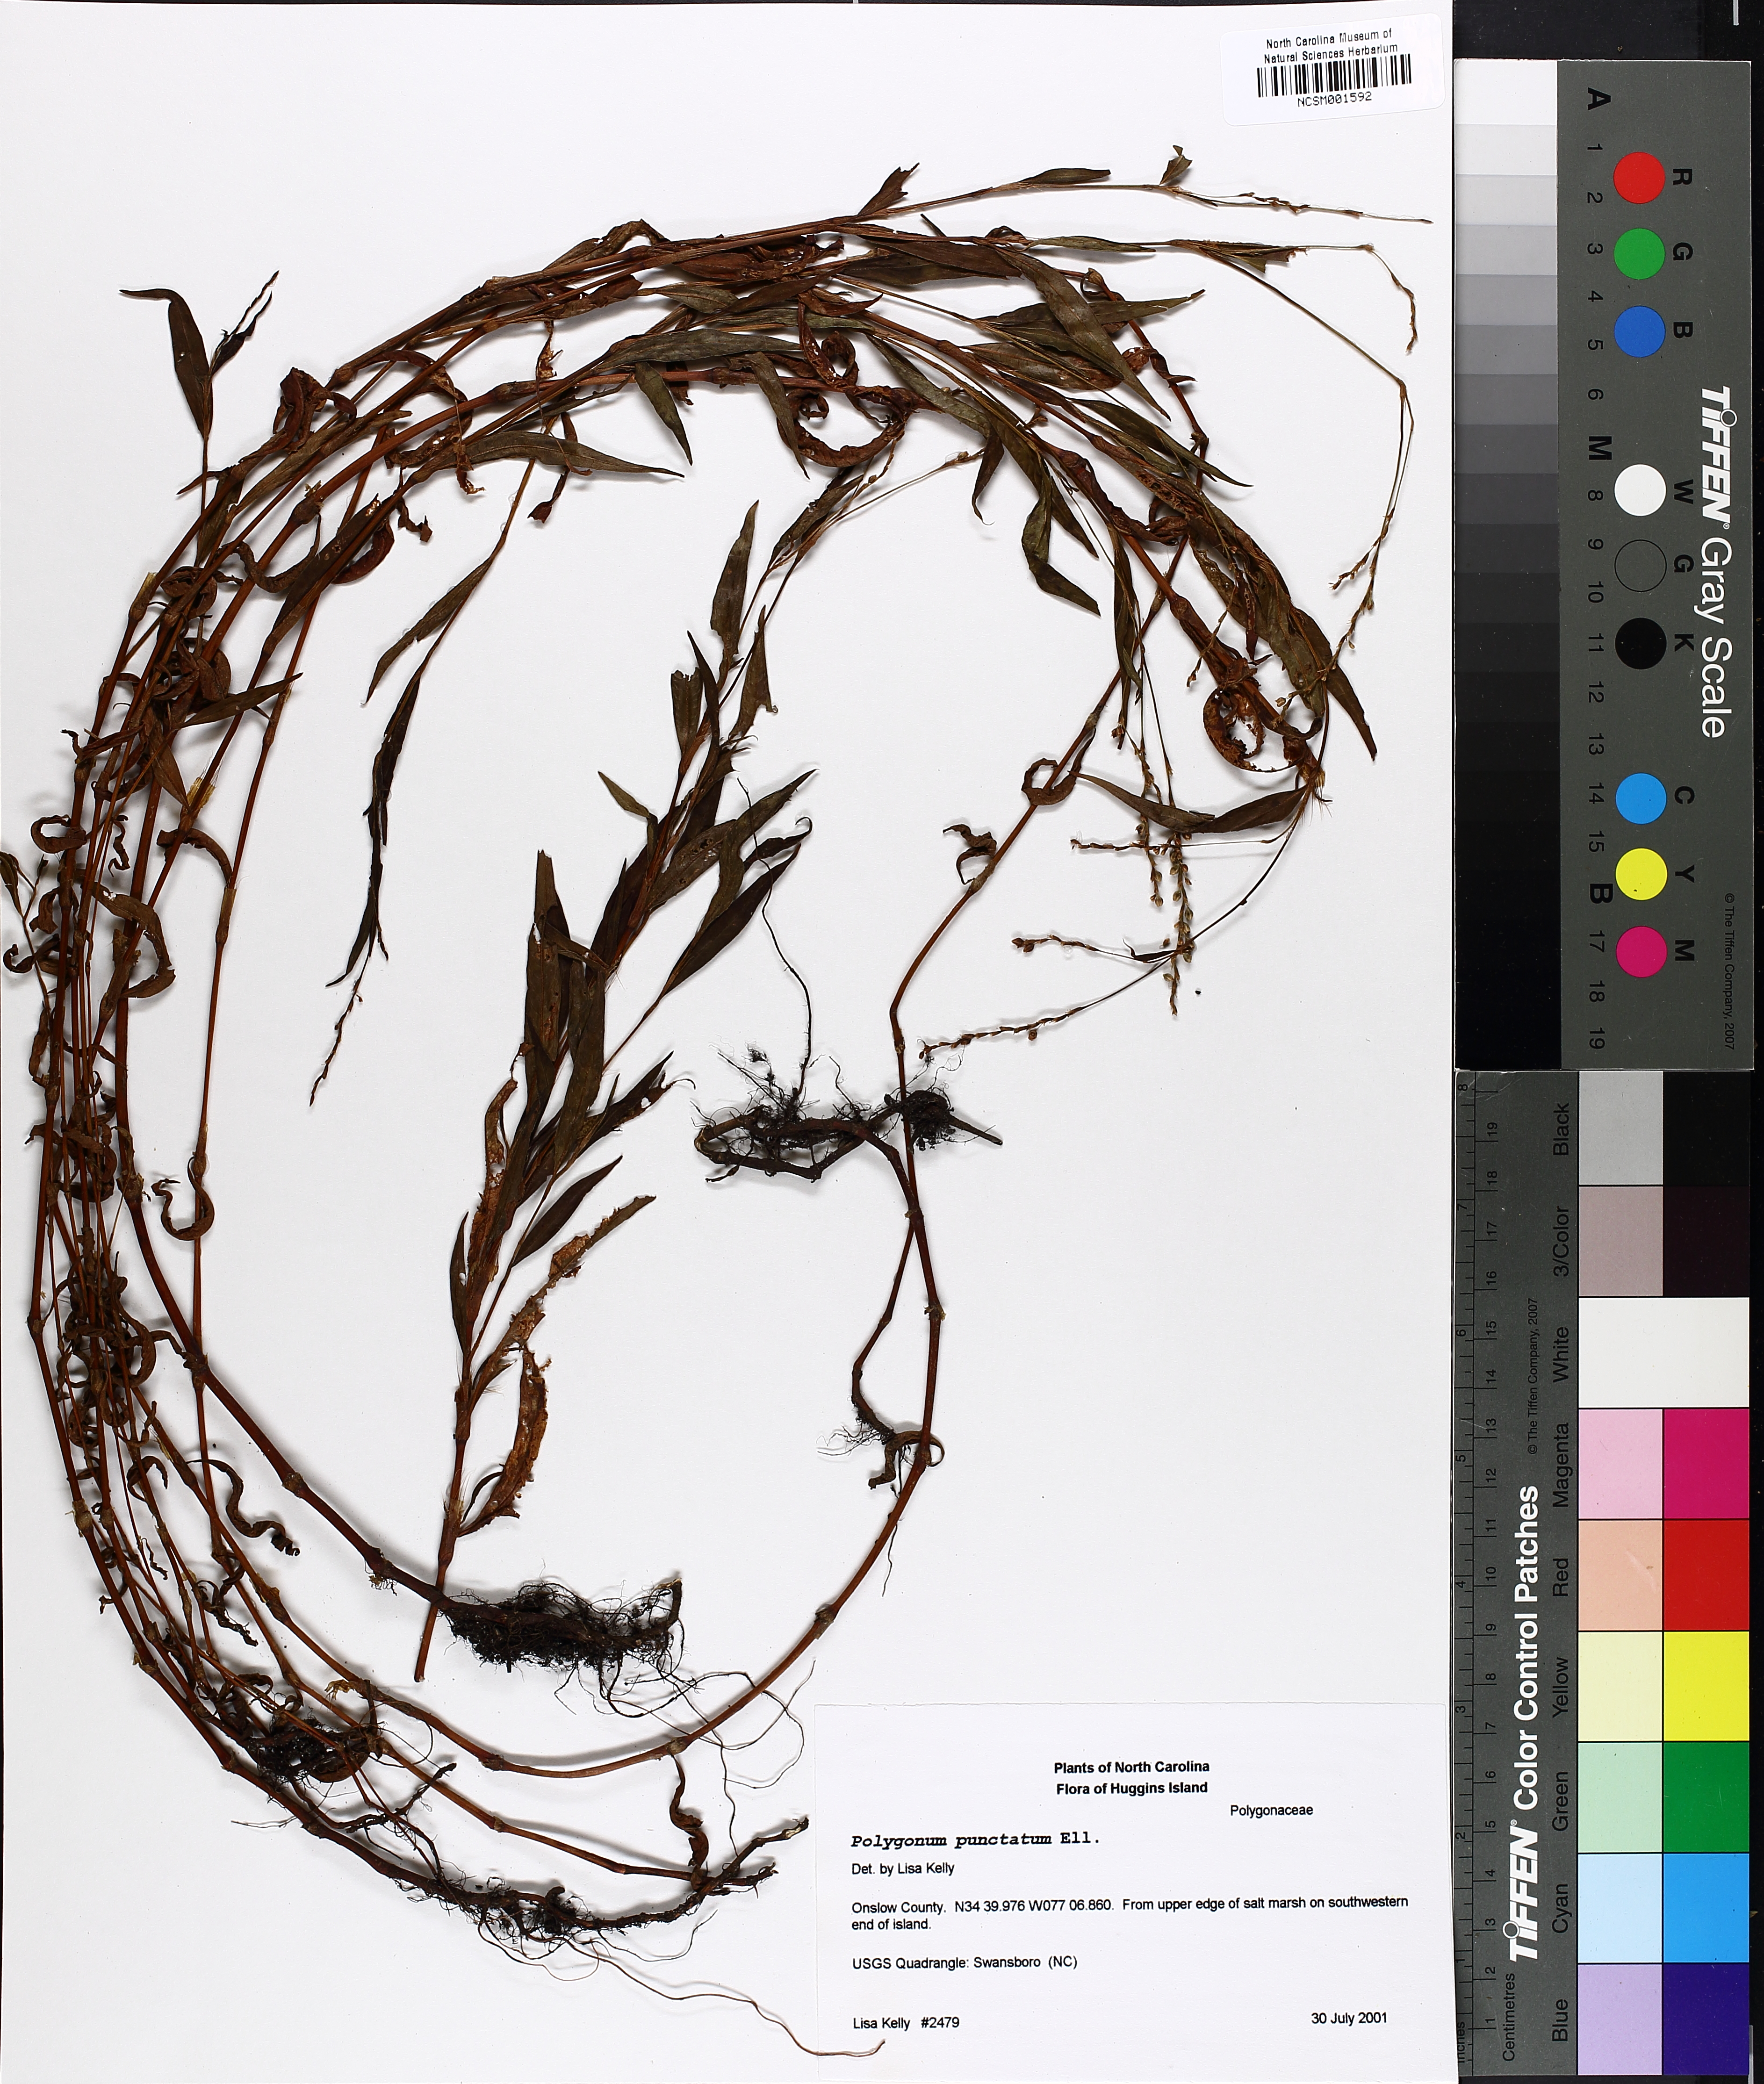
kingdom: Plantae
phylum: Tracheophyta
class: Magnoliopsida
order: Caryophyllales
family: Polygonaceae
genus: Persicaria
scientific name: Persicaria punctata
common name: Dotted smartweed
